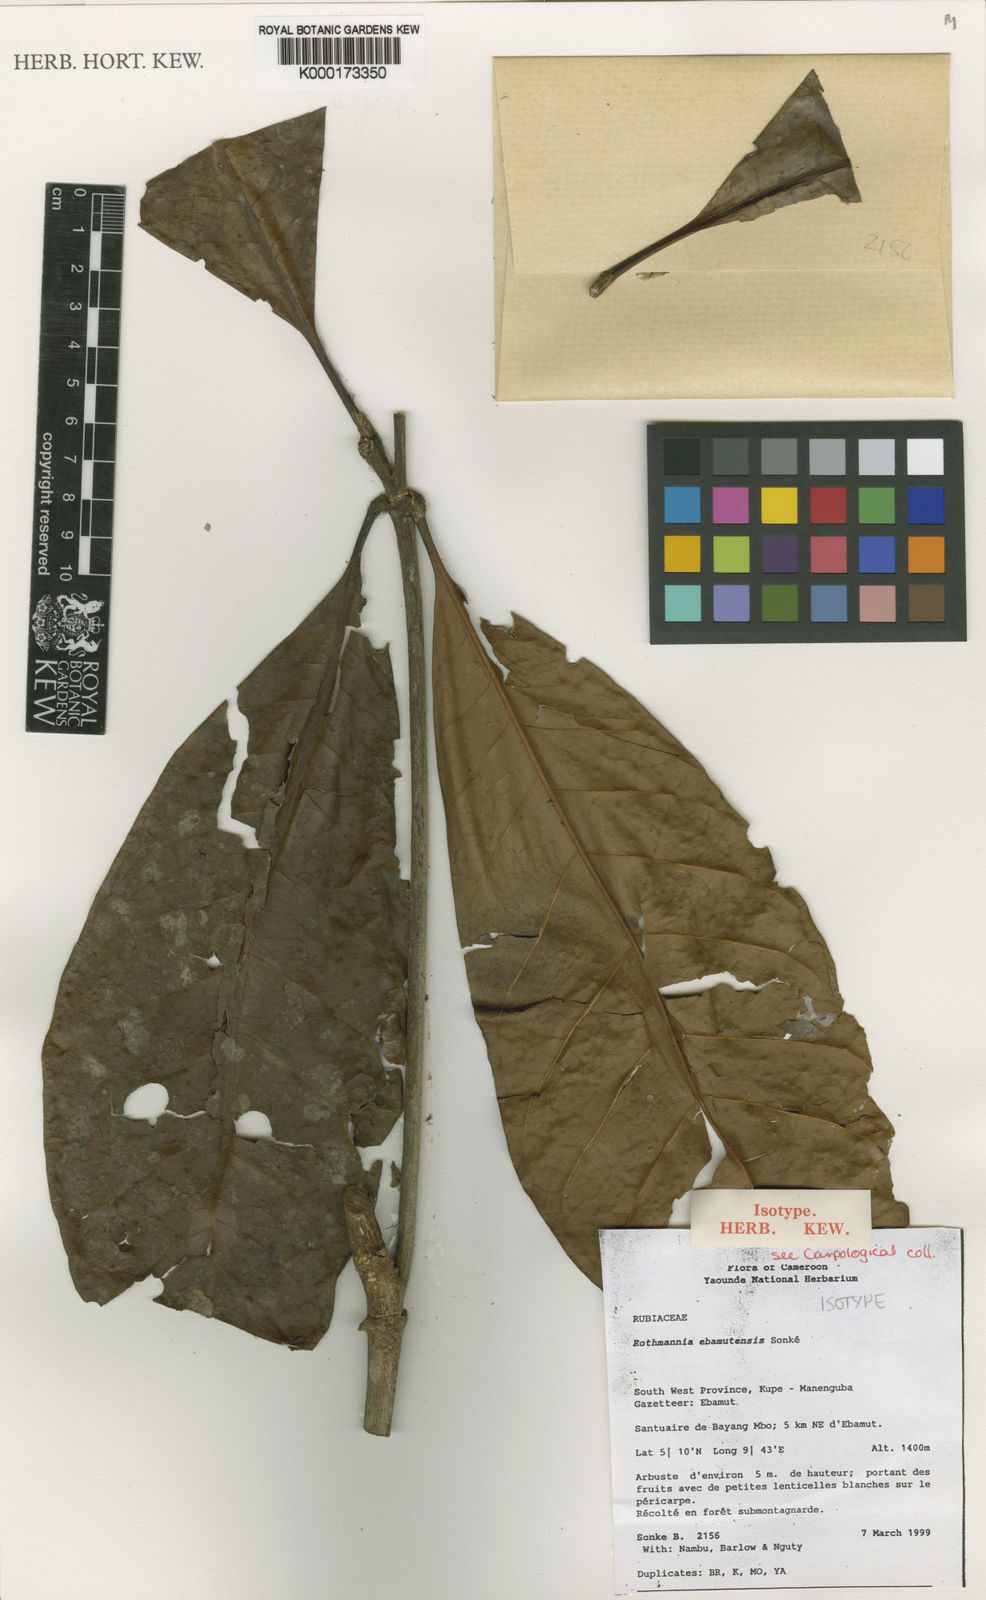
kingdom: Plantae
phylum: Tracheophyta
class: Magnoliopsida
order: Gentianales
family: Rubiaceae
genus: Rothmannia
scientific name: Rothmannia
